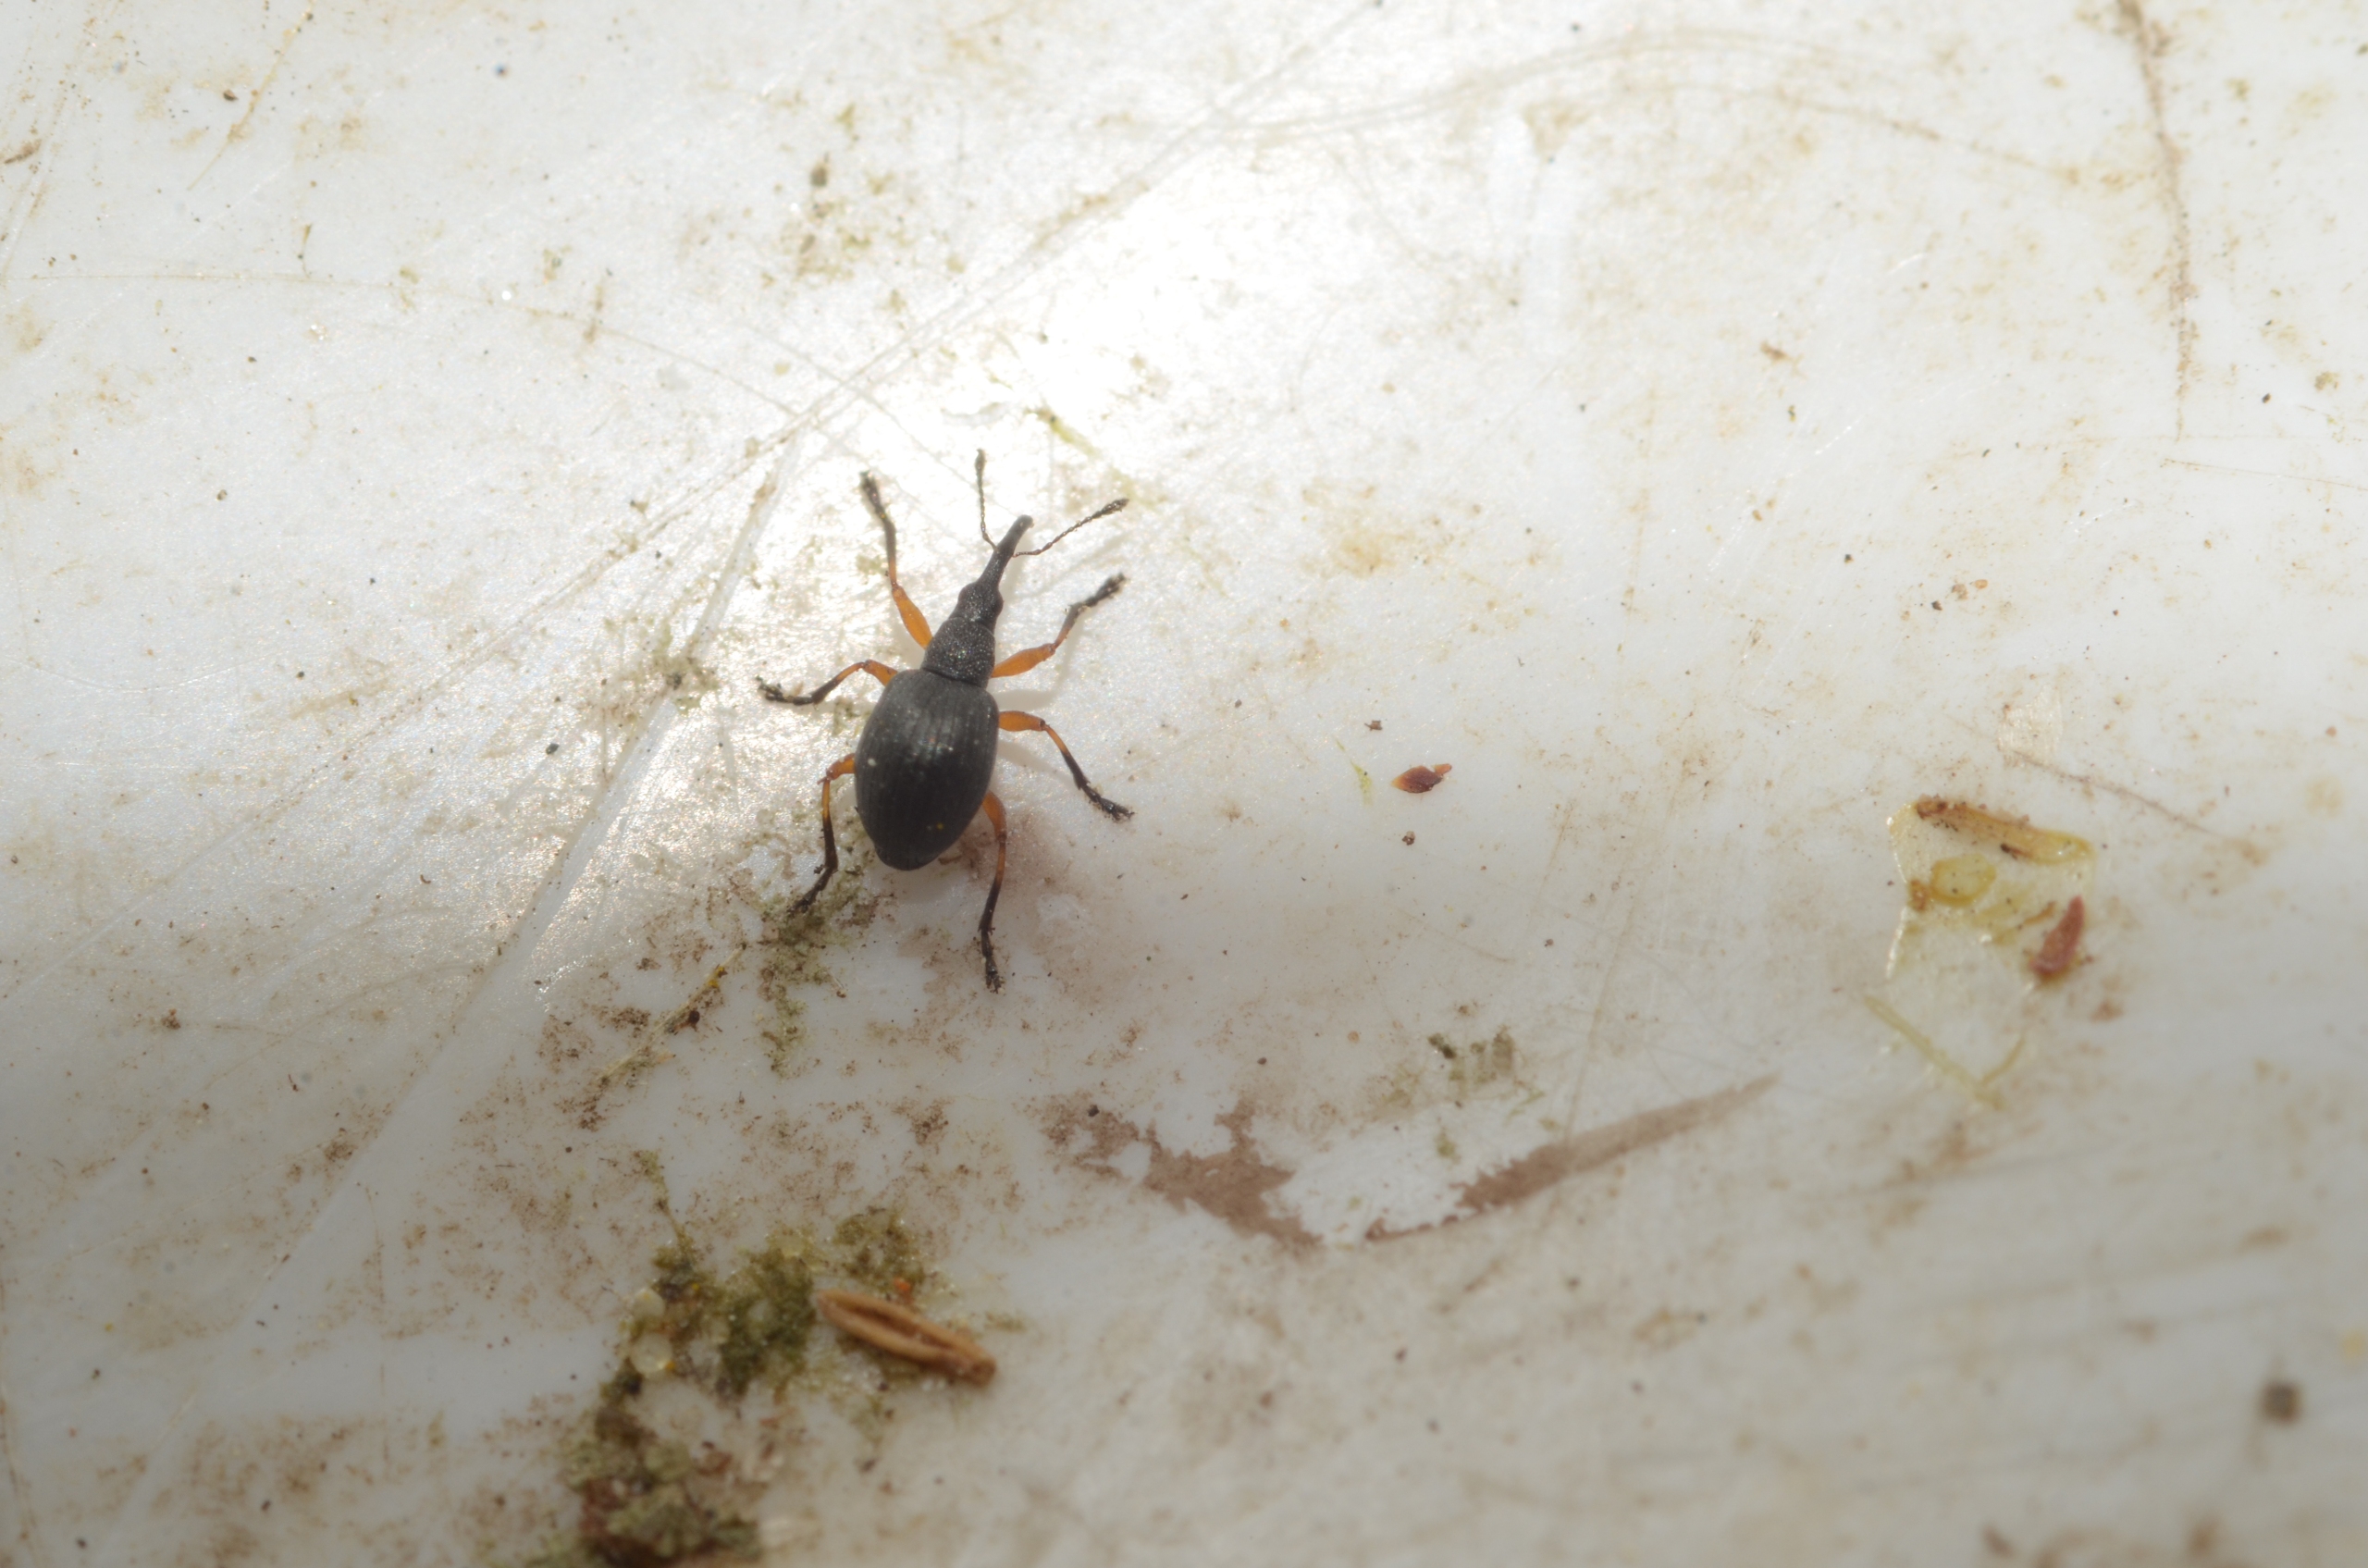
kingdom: Animalia
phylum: Arthropoda
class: Insecta
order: Coleoptera
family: Apionidae
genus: Protapion
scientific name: Protapion dissimile
